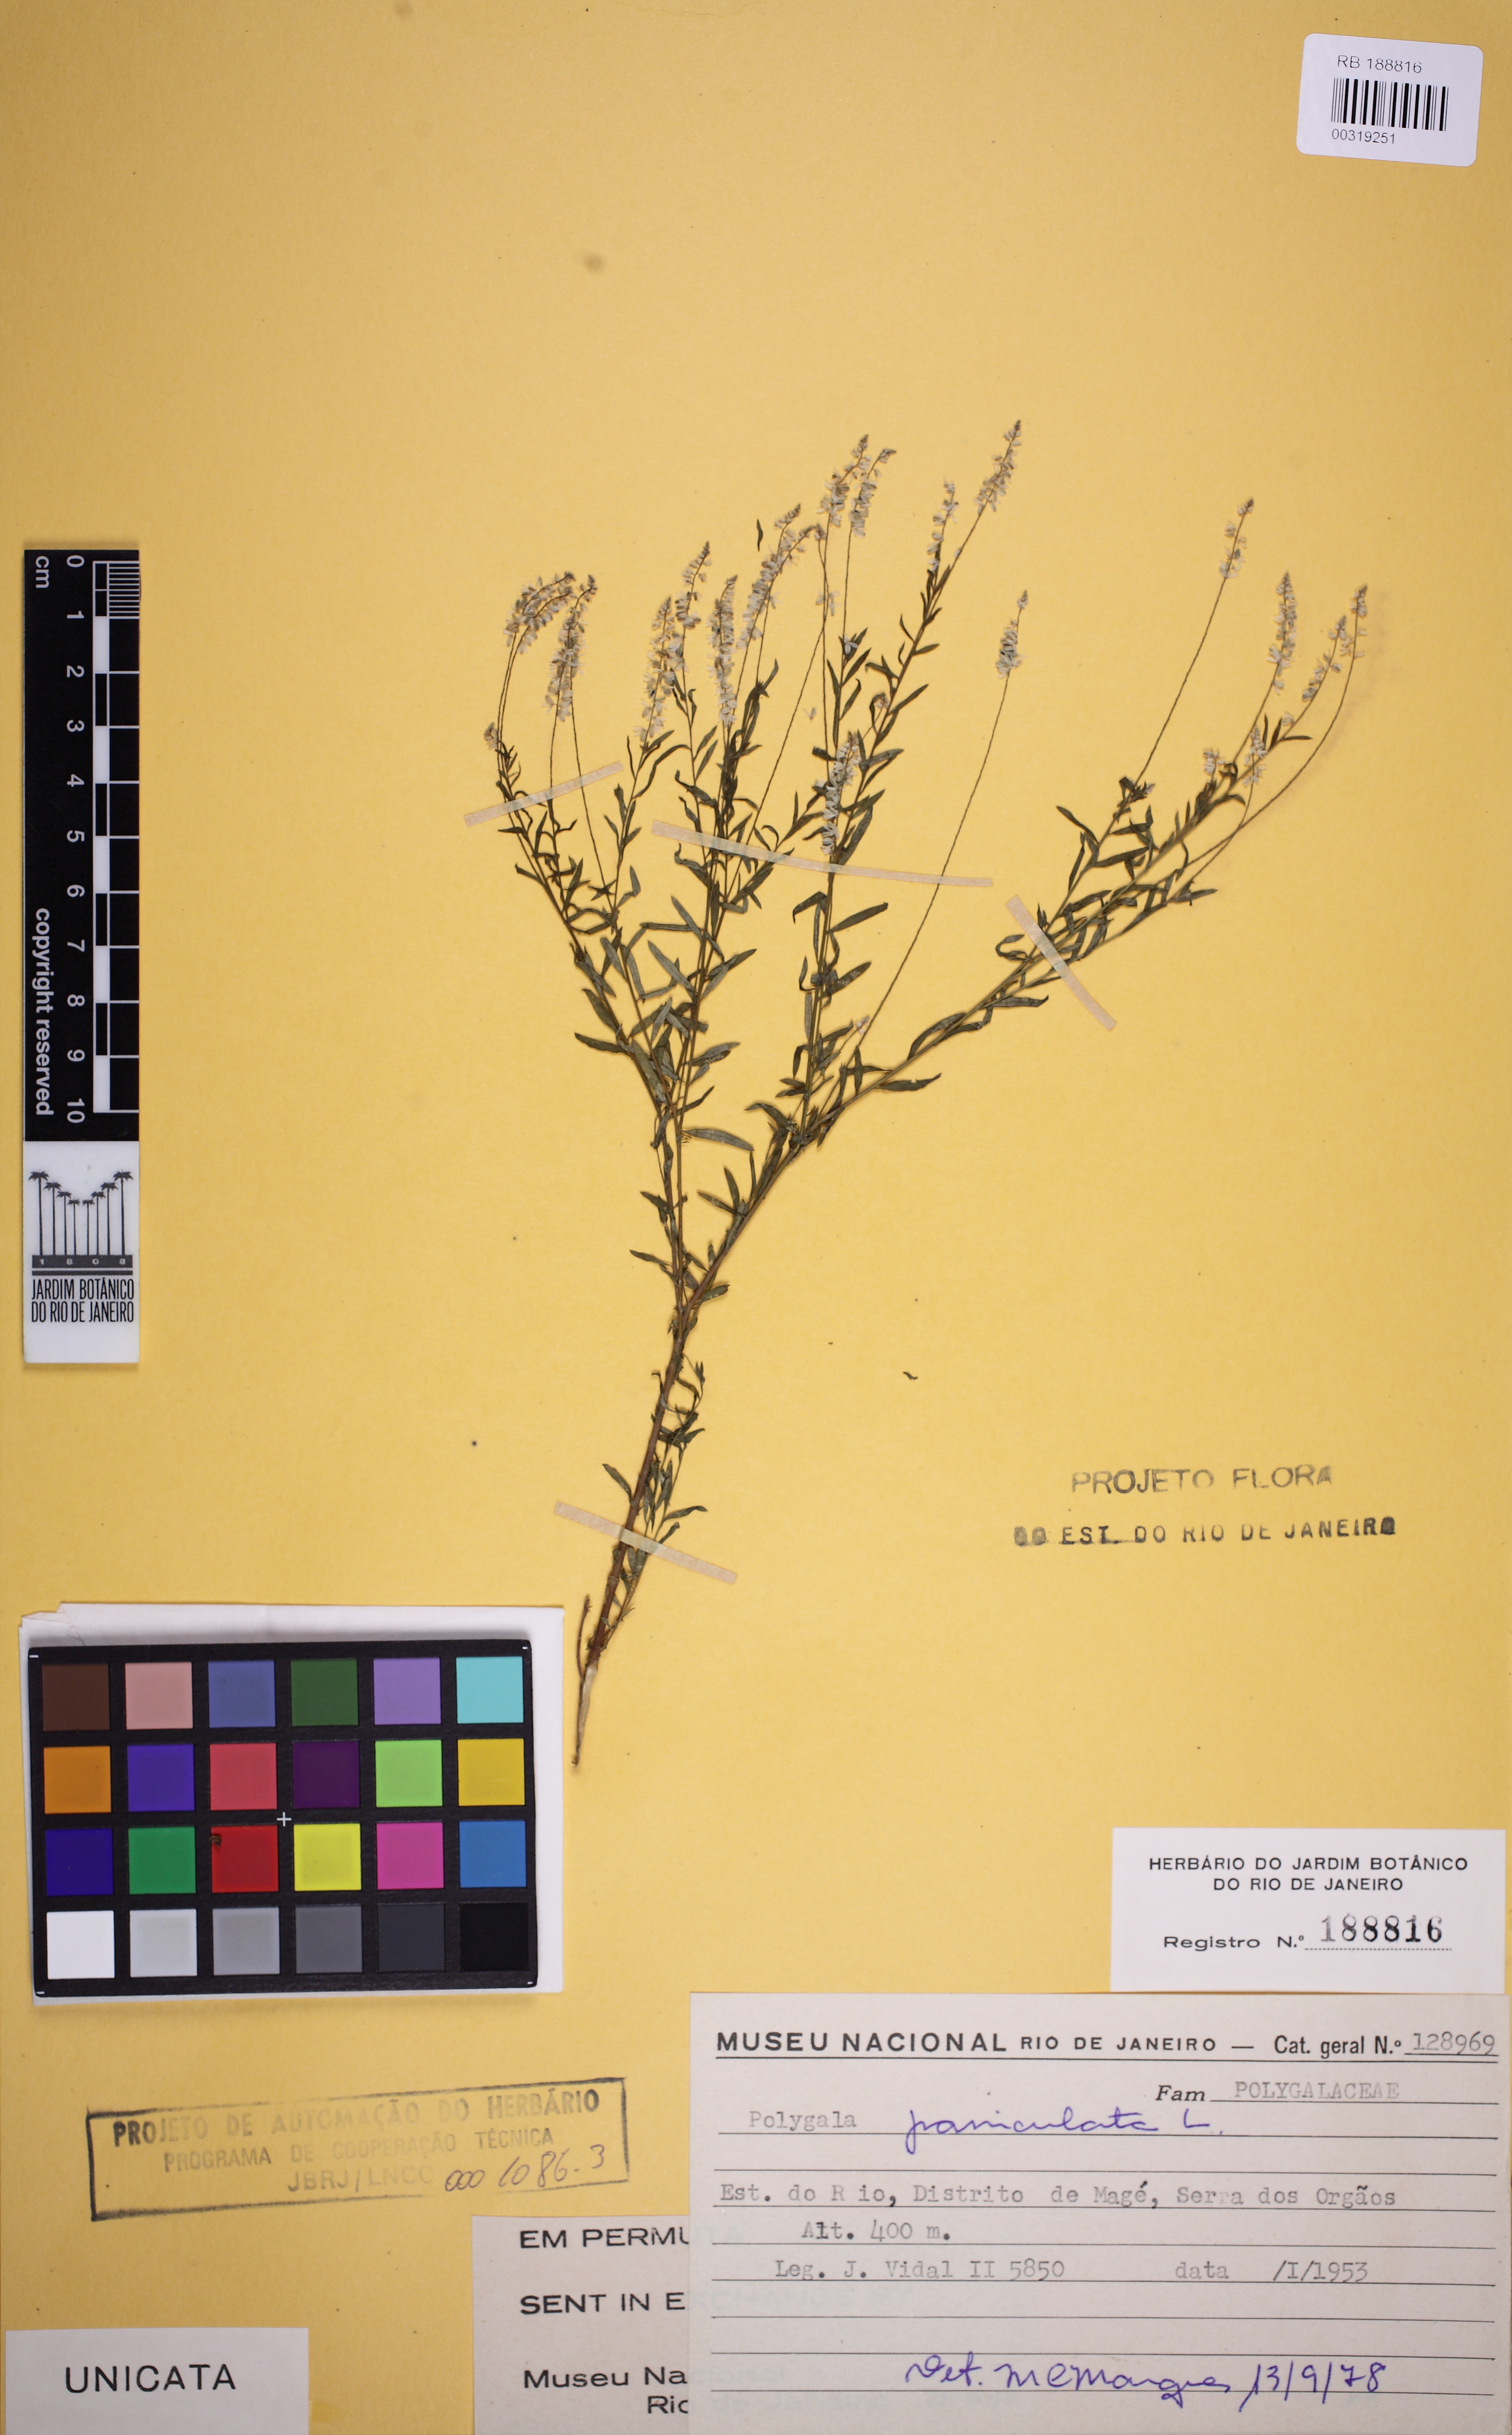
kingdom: Plantae
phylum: Tracheophyta
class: Magnoliopsida
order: Fabales
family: Polygalaceae
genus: Polygala
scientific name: Polygala paniculata
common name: Orosne
